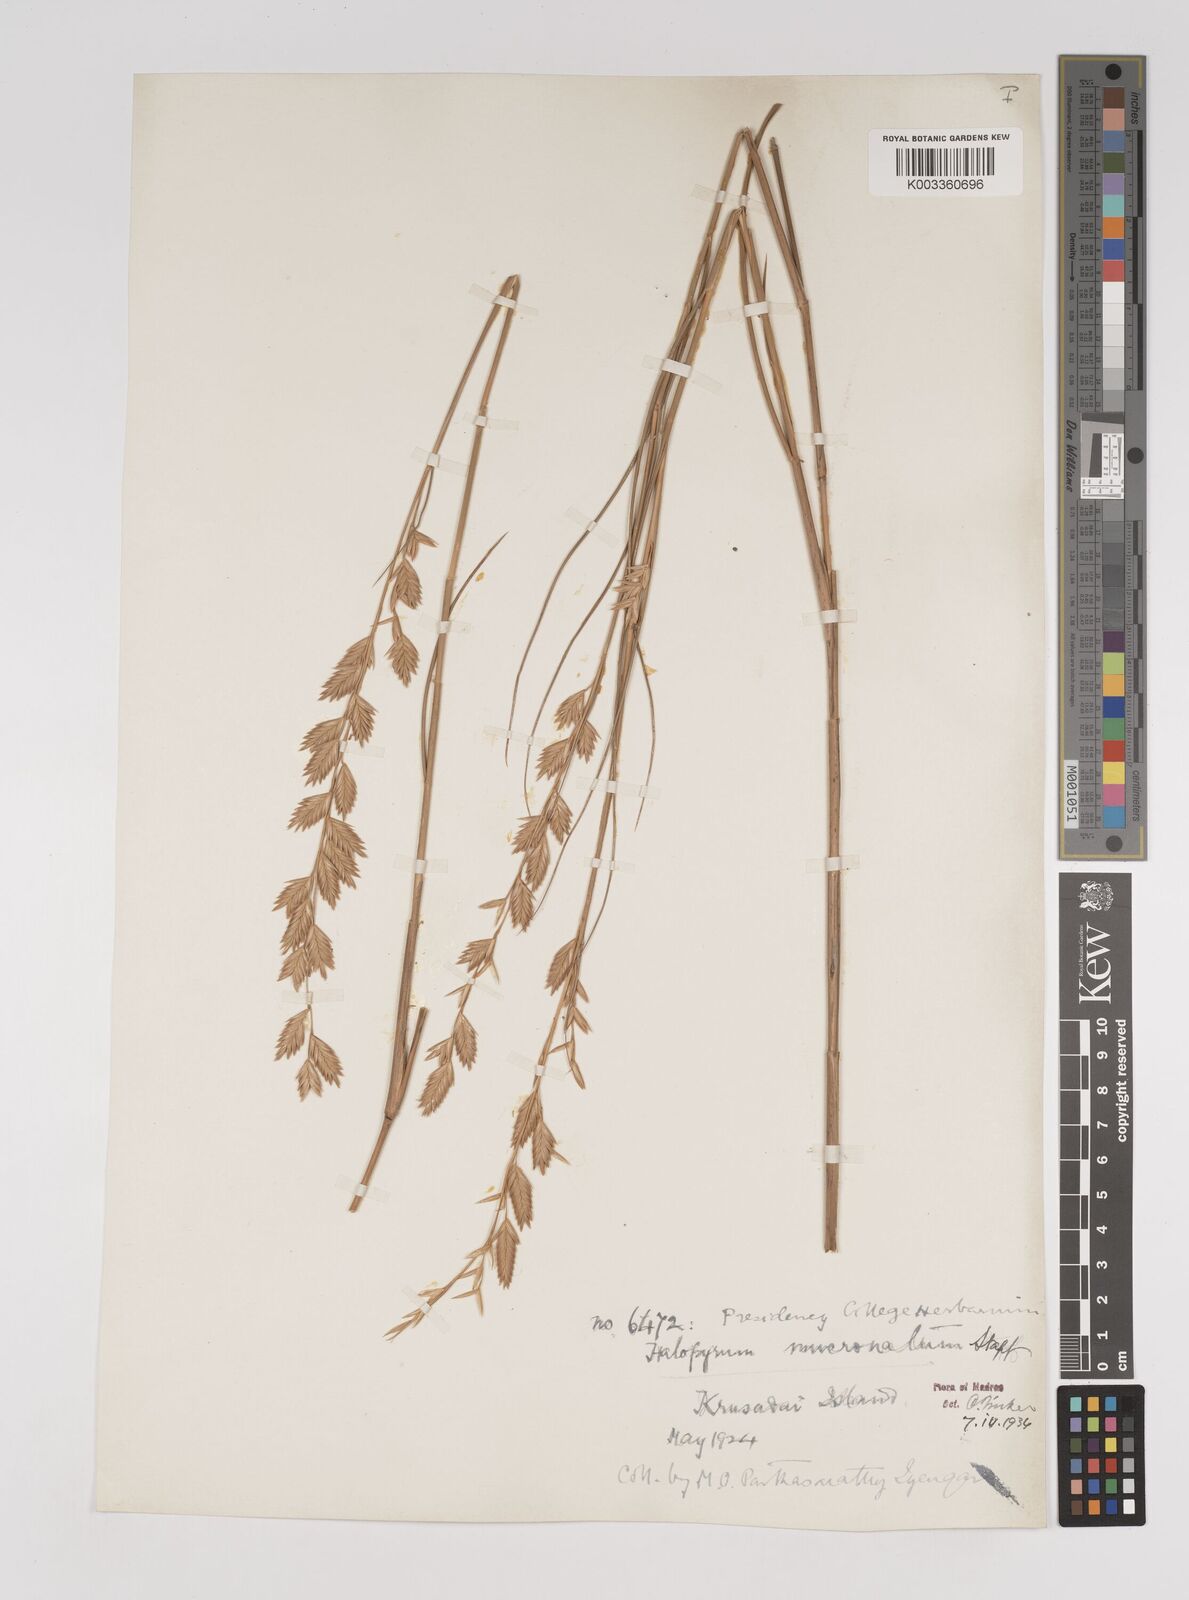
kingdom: Plantae
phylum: Tracheophyta
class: Liliopsida
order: Poales
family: Poaceae
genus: Halopyrum
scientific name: Halopyrum mucronatum
